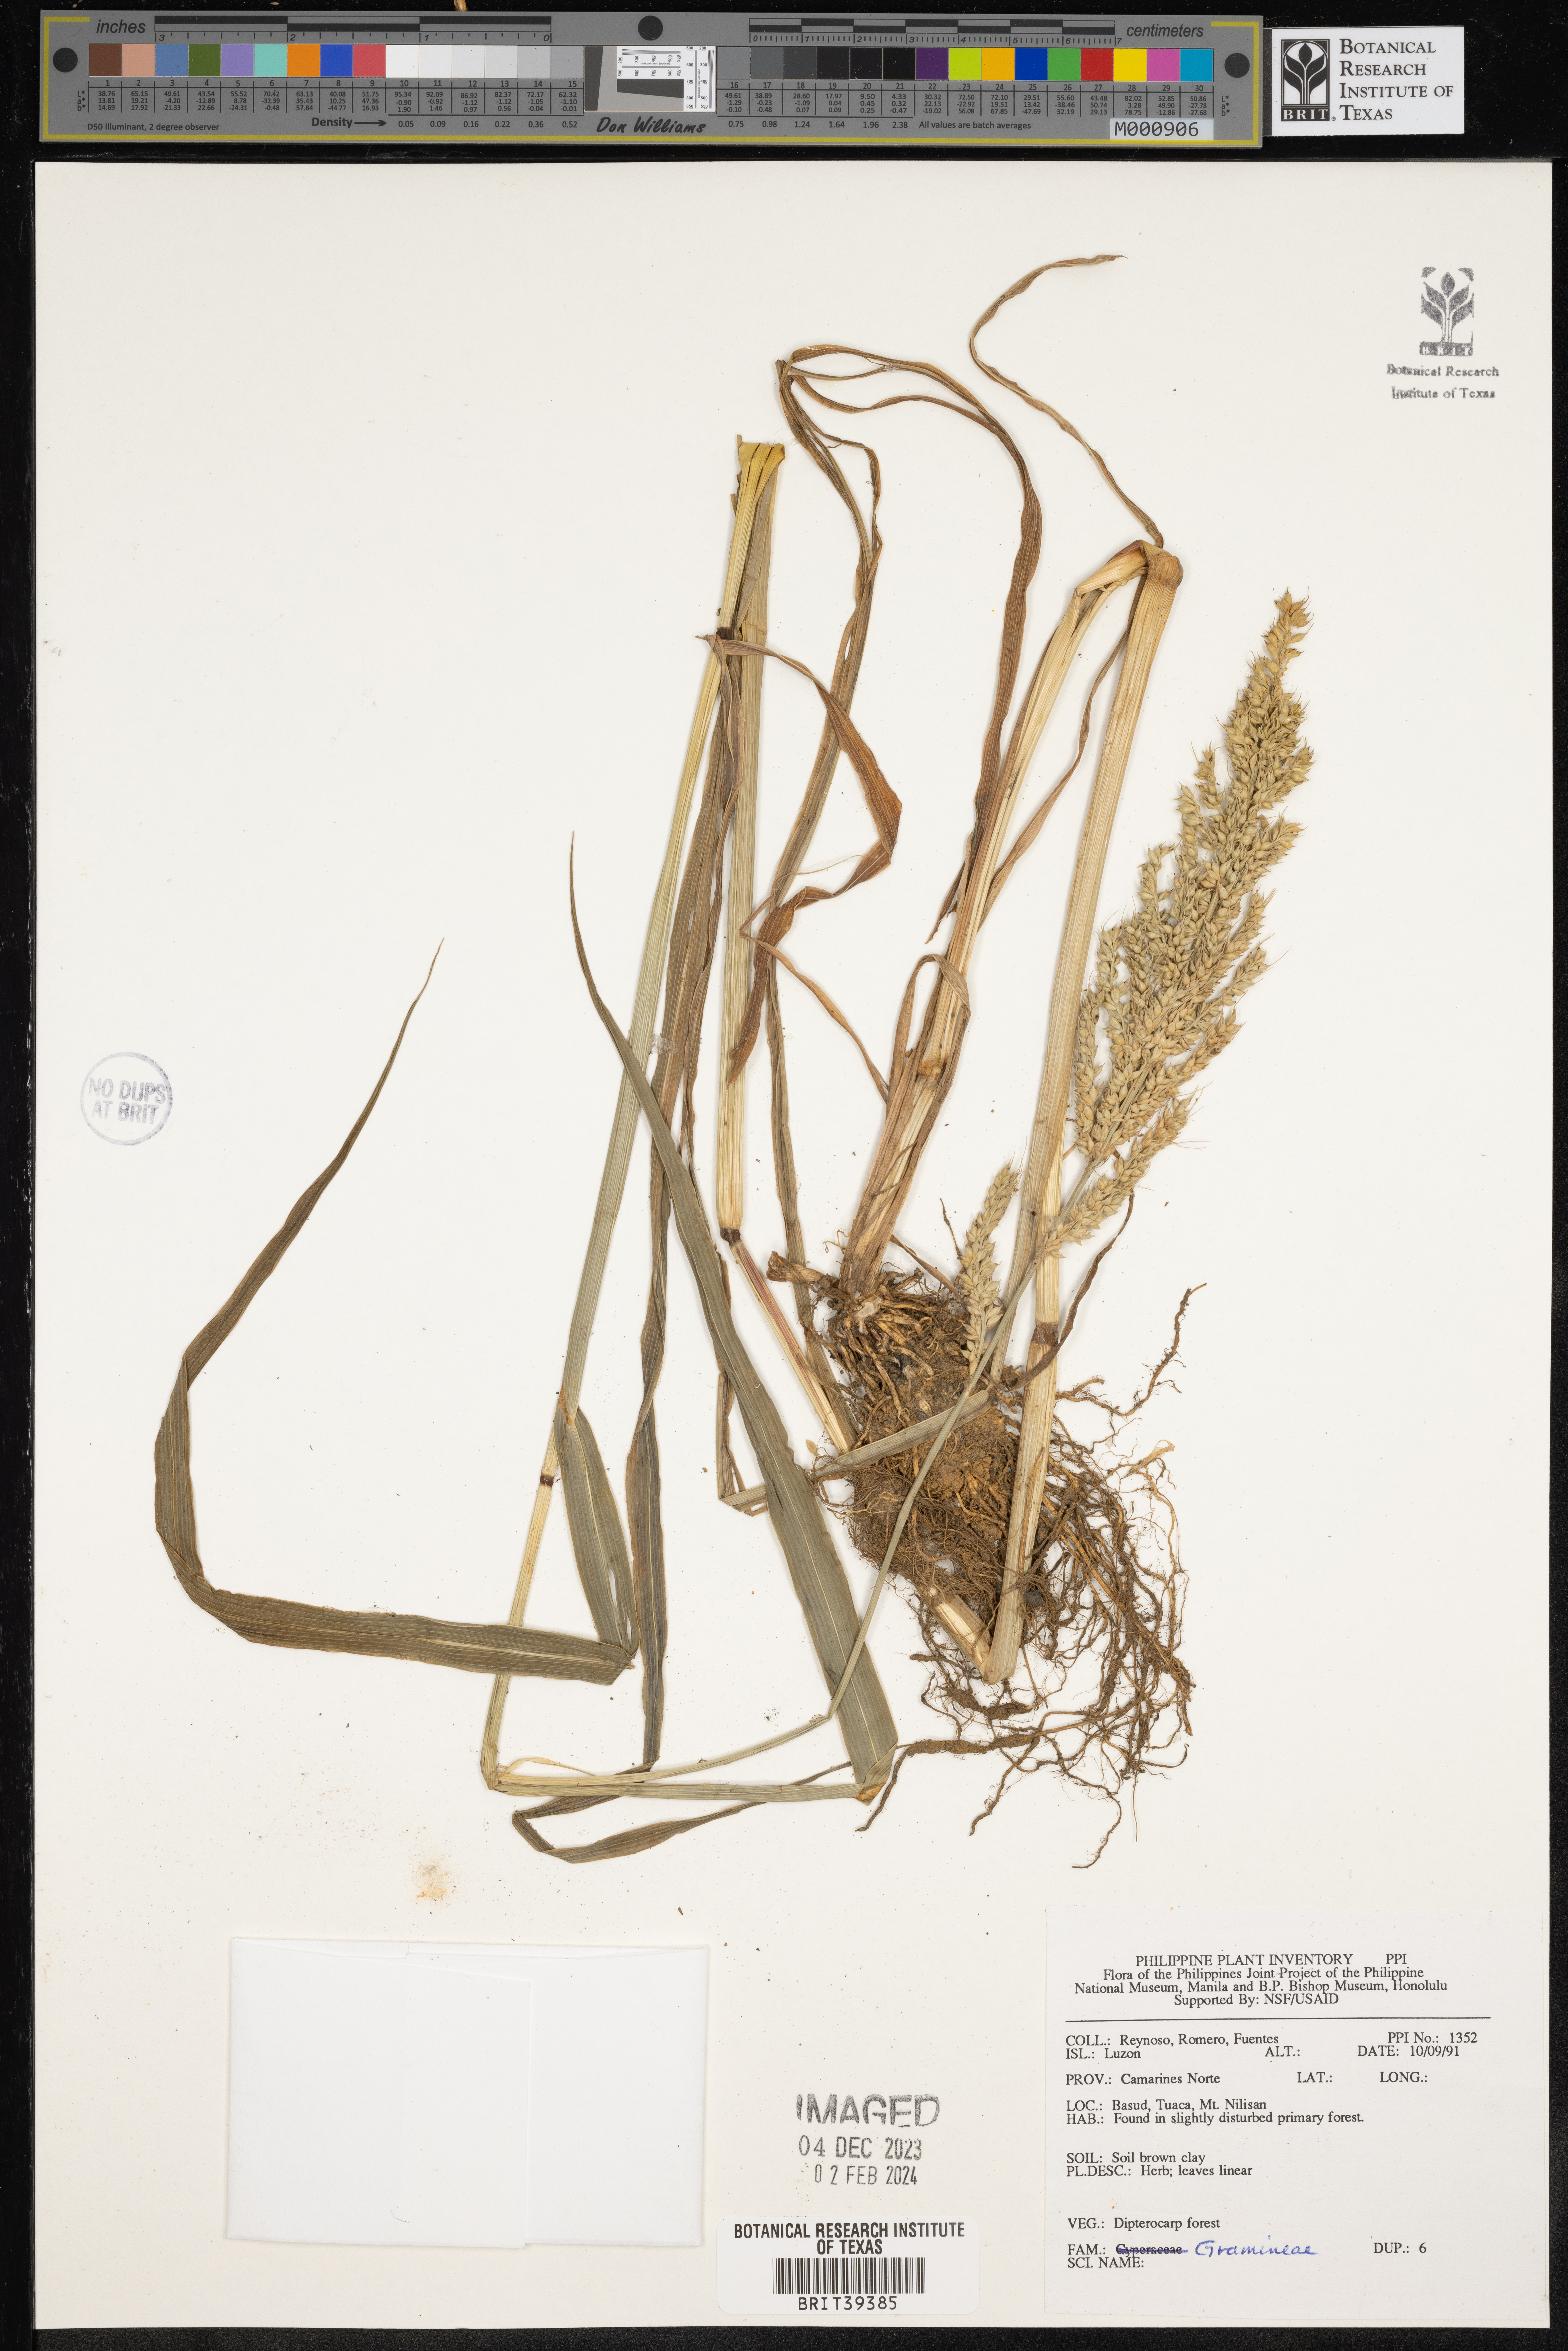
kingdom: Plantae
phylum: Tracheophyta
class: Liliopsida
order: Poales
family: Poaceae
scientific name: Poaceae
